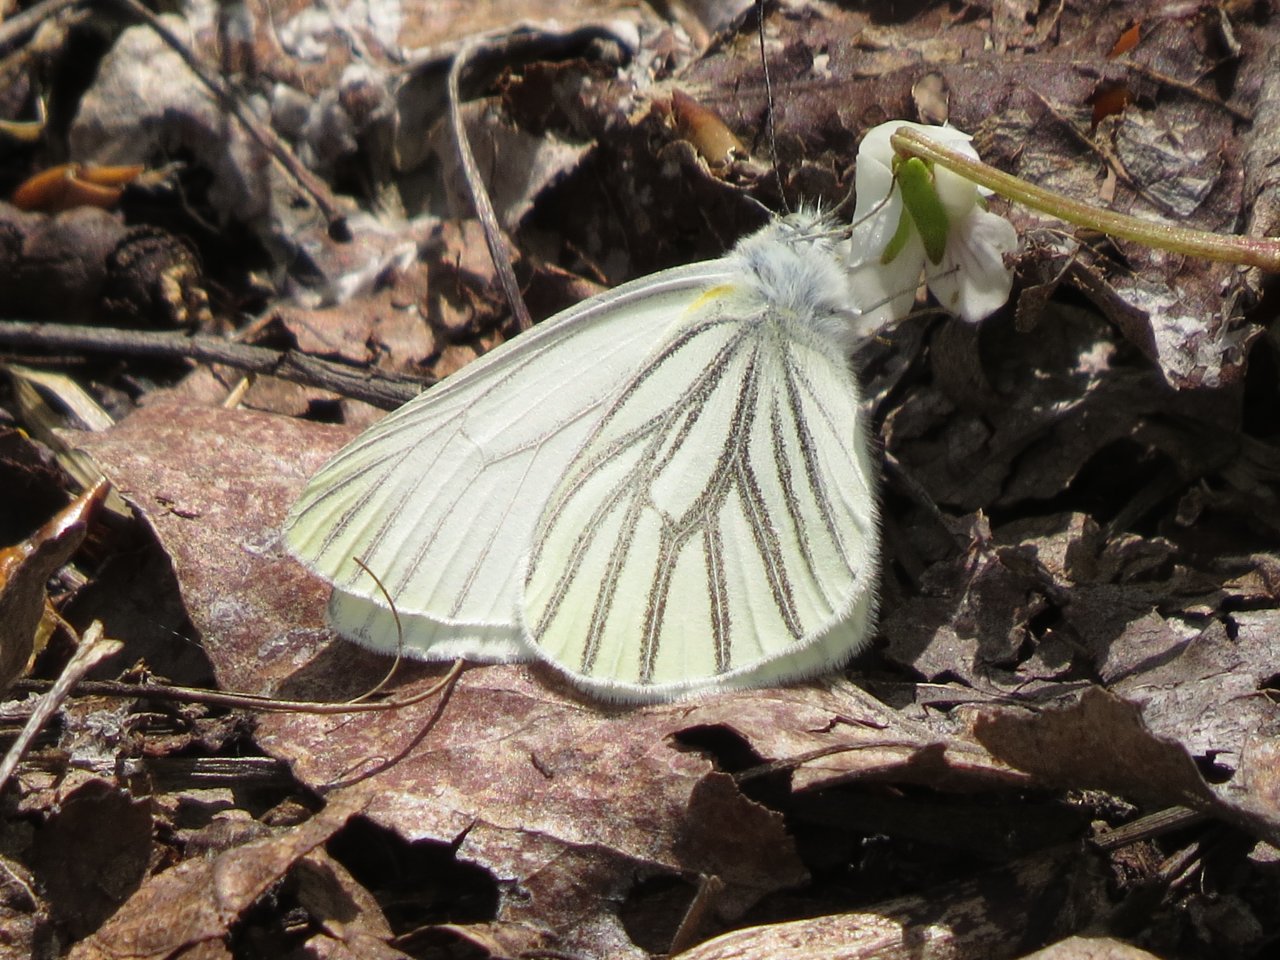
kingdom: Animalia
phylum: Arthropoda
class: Insecta
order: Lepidoptera
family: Pieridae
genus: Pieris
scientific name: Pieris oleracea
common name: Mustard White
